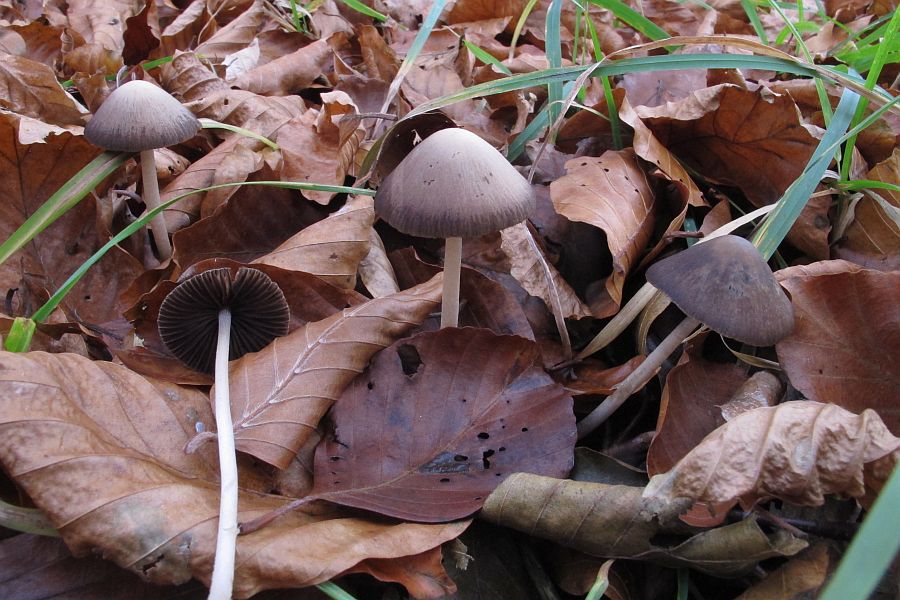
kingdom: Fungi
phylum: Basidiomycota
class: Agaricomycetes
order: Agaricales
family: Psathyrellaceae
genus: Psathyrella
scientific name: Psathyrella microrhiza
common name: rod-mørkhat
